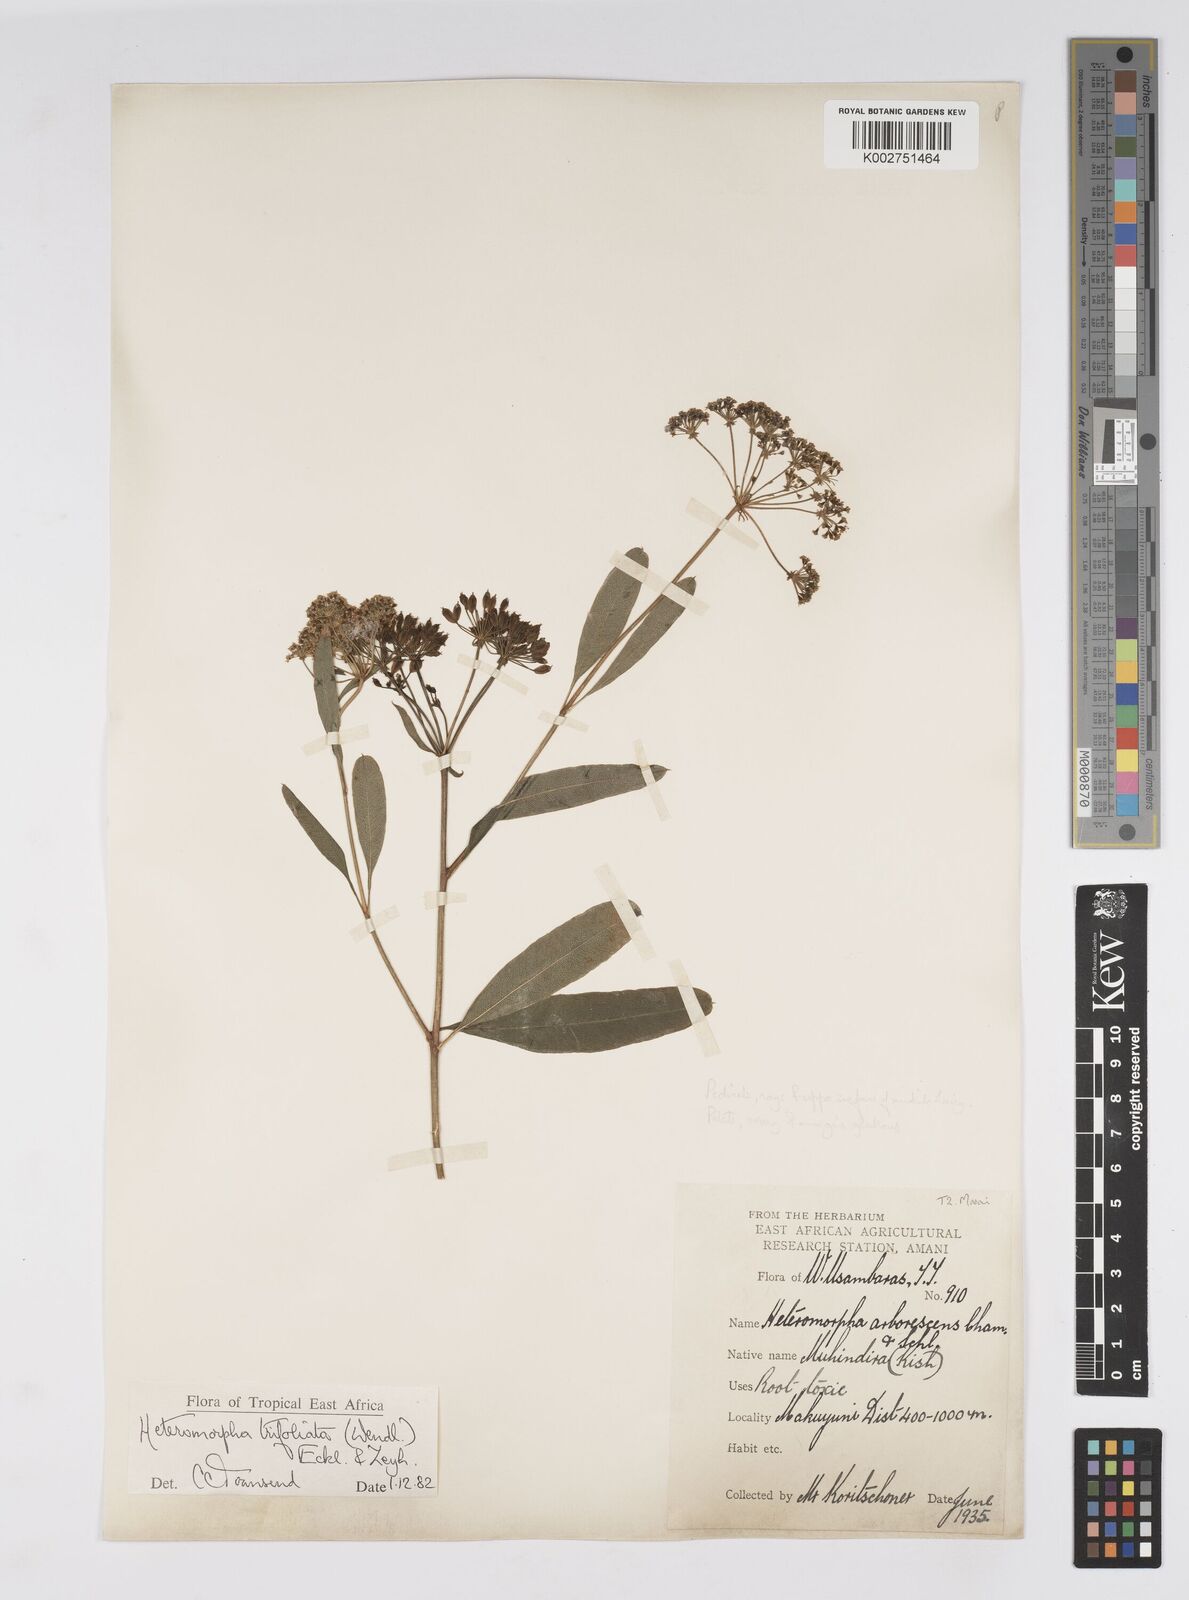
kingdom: Plantae
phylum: Tracheophyta
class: Magnoliopsida
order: Apiales
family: Apiaceae
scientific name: Apiaceae
